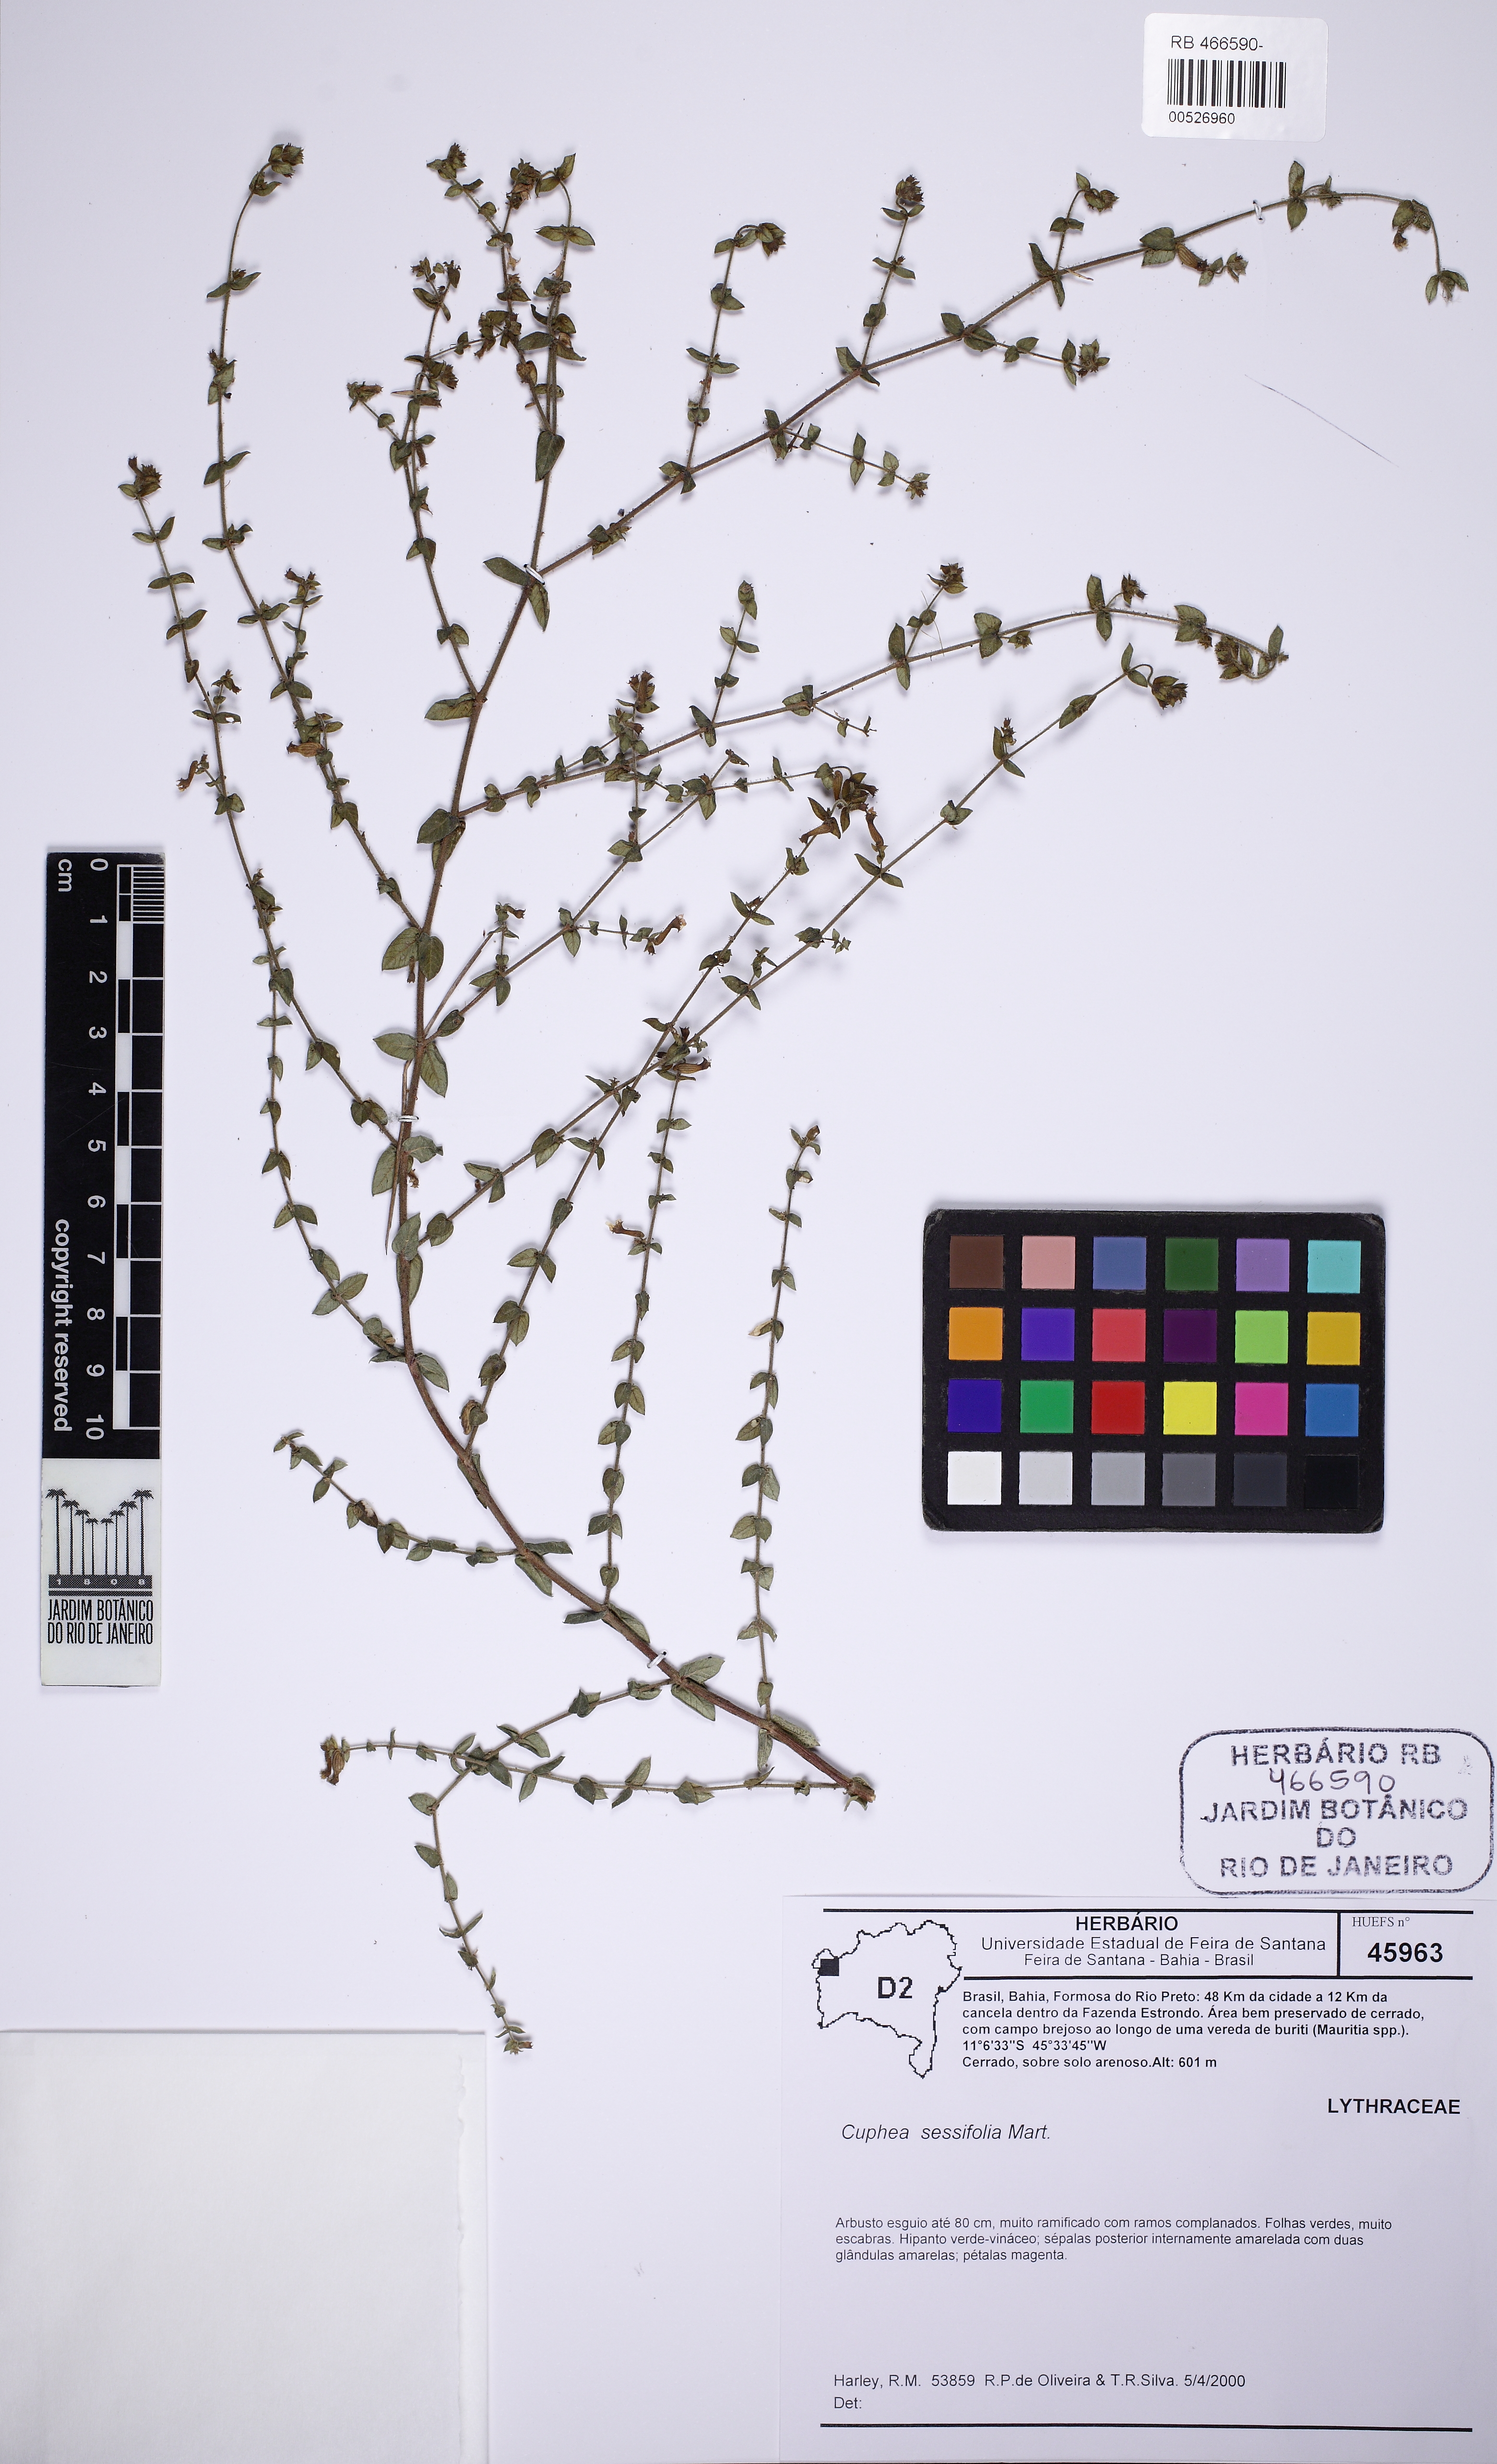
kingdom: Plantae
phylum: Tracheophyta
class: Magnoliopsida
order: Myrtales
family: Lythraceae
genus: Cuphea
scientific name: Cuphea sessiliflora
